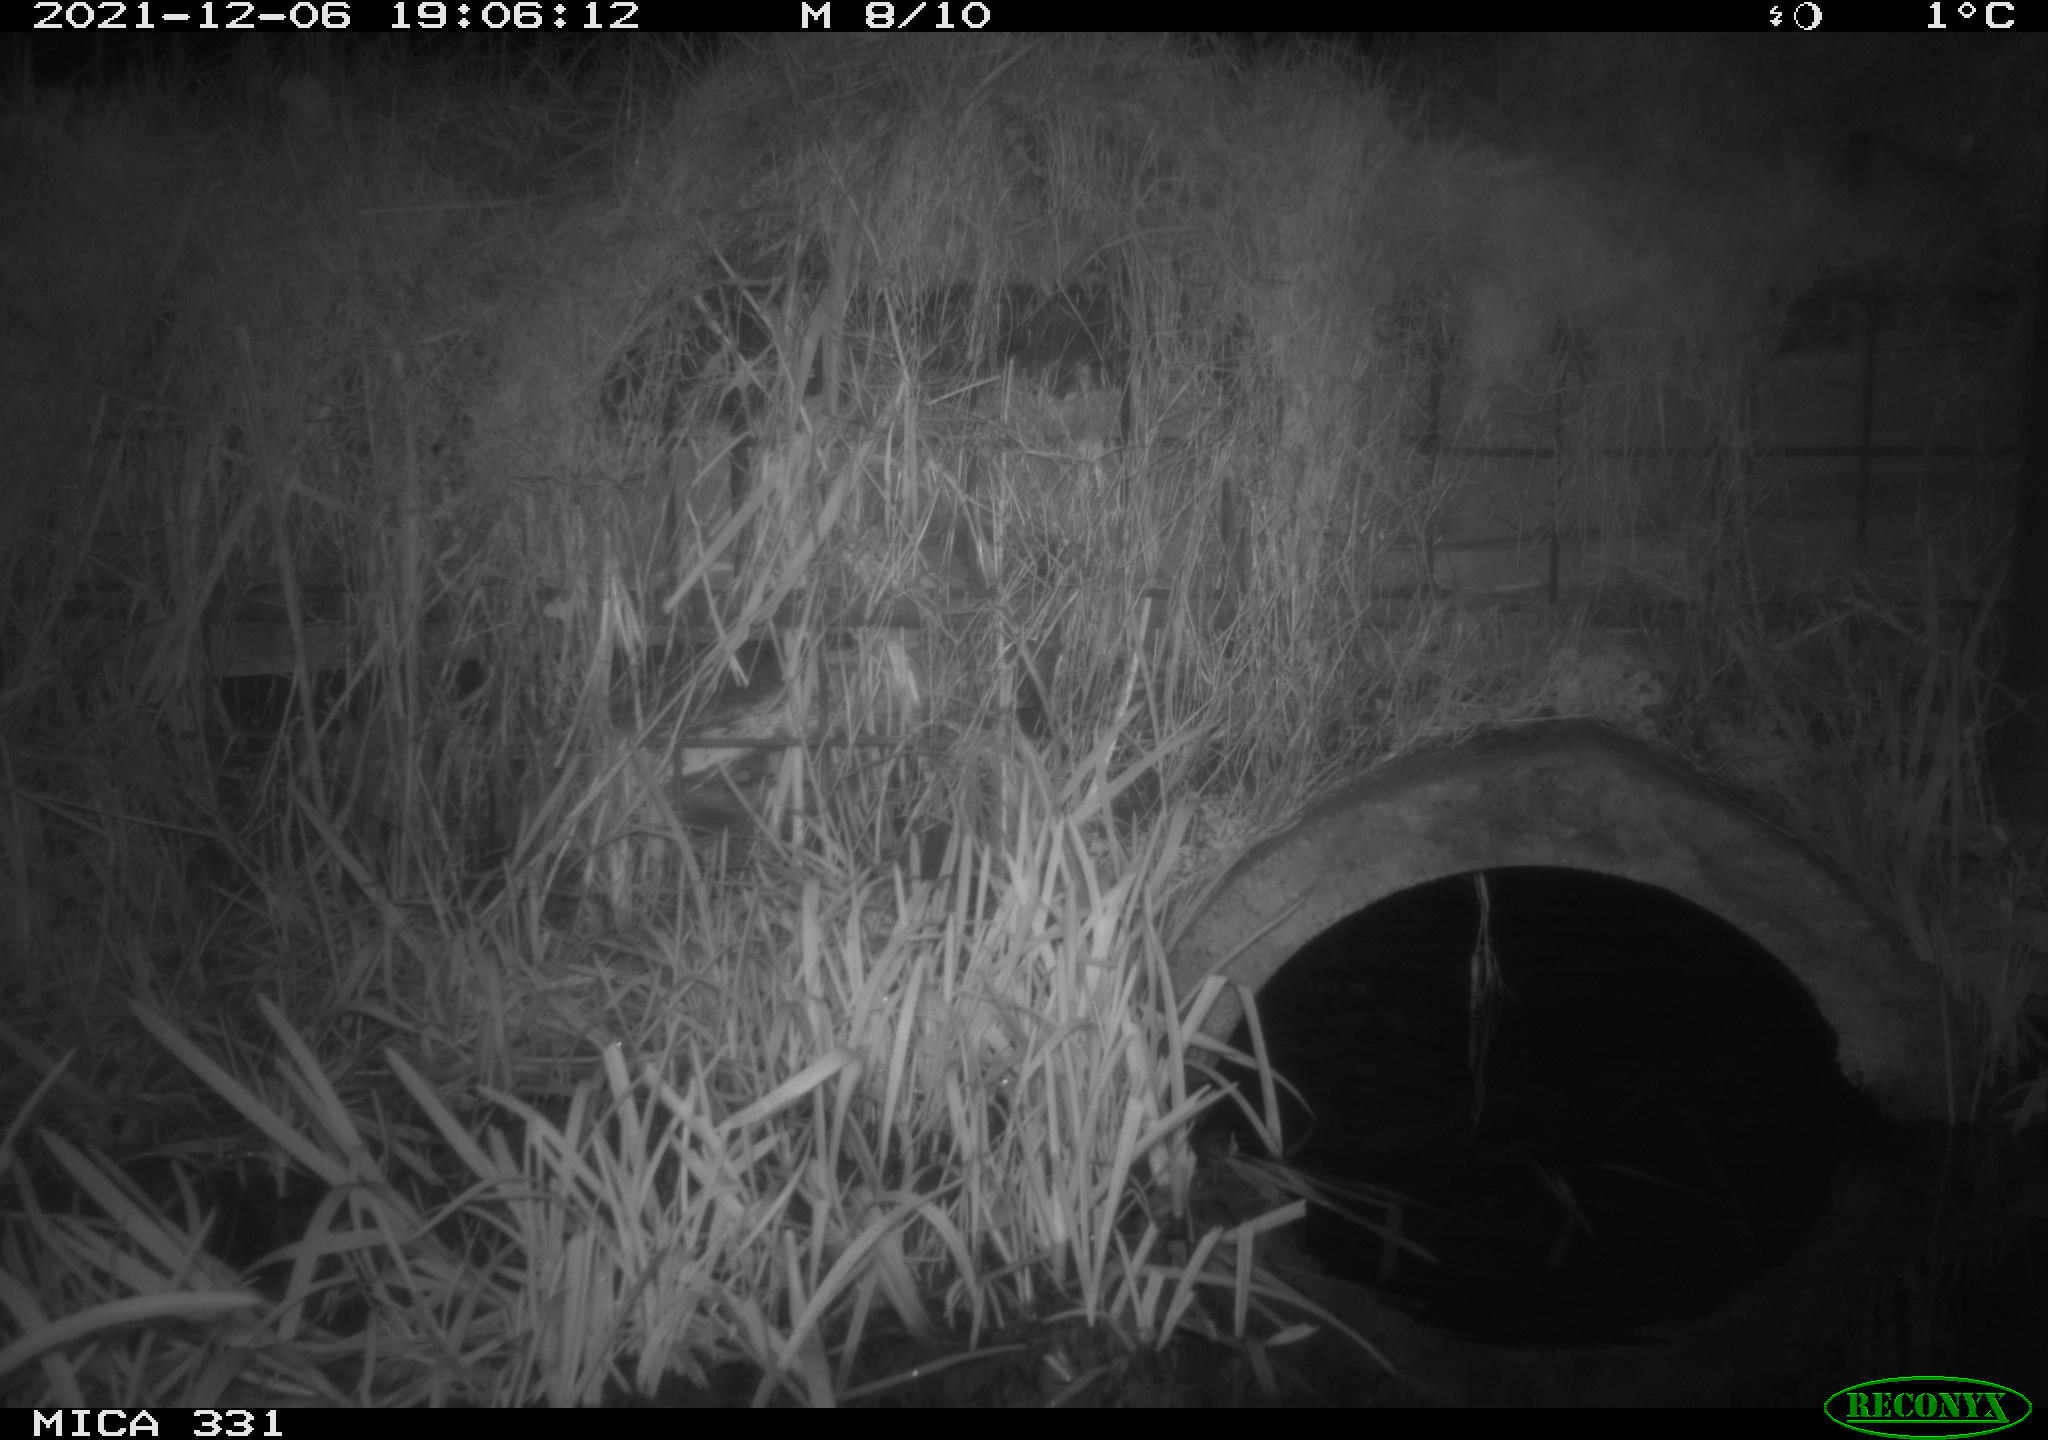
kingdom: Animalia
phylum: Chordata
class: Mammalia
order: Rodentia
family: Muridae
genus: Rattus
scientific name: Rattus norvegicus
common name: Brown rat
